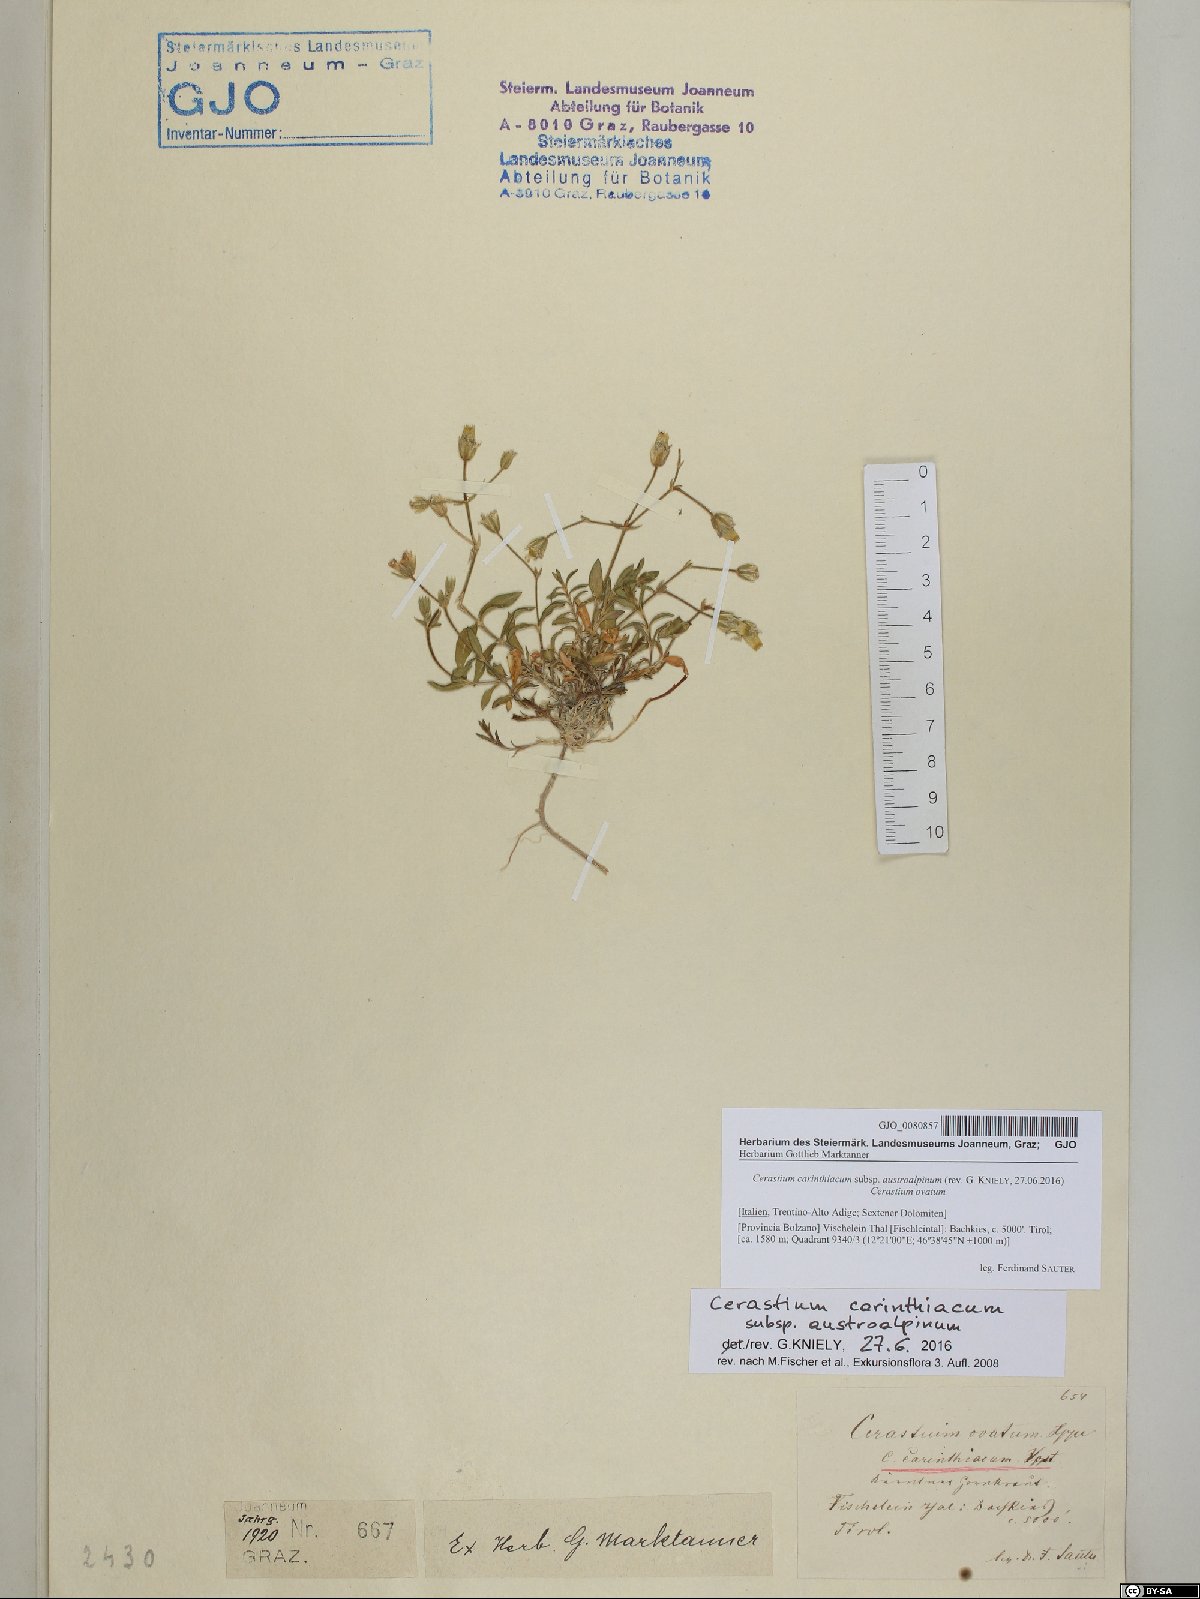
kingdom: Plantae
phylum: Tracheophyta
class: Magnoliopsida
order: Caryophyllales
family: Caryophyllaceae
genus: Cerastium
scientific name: Cerastium carinthiacum
